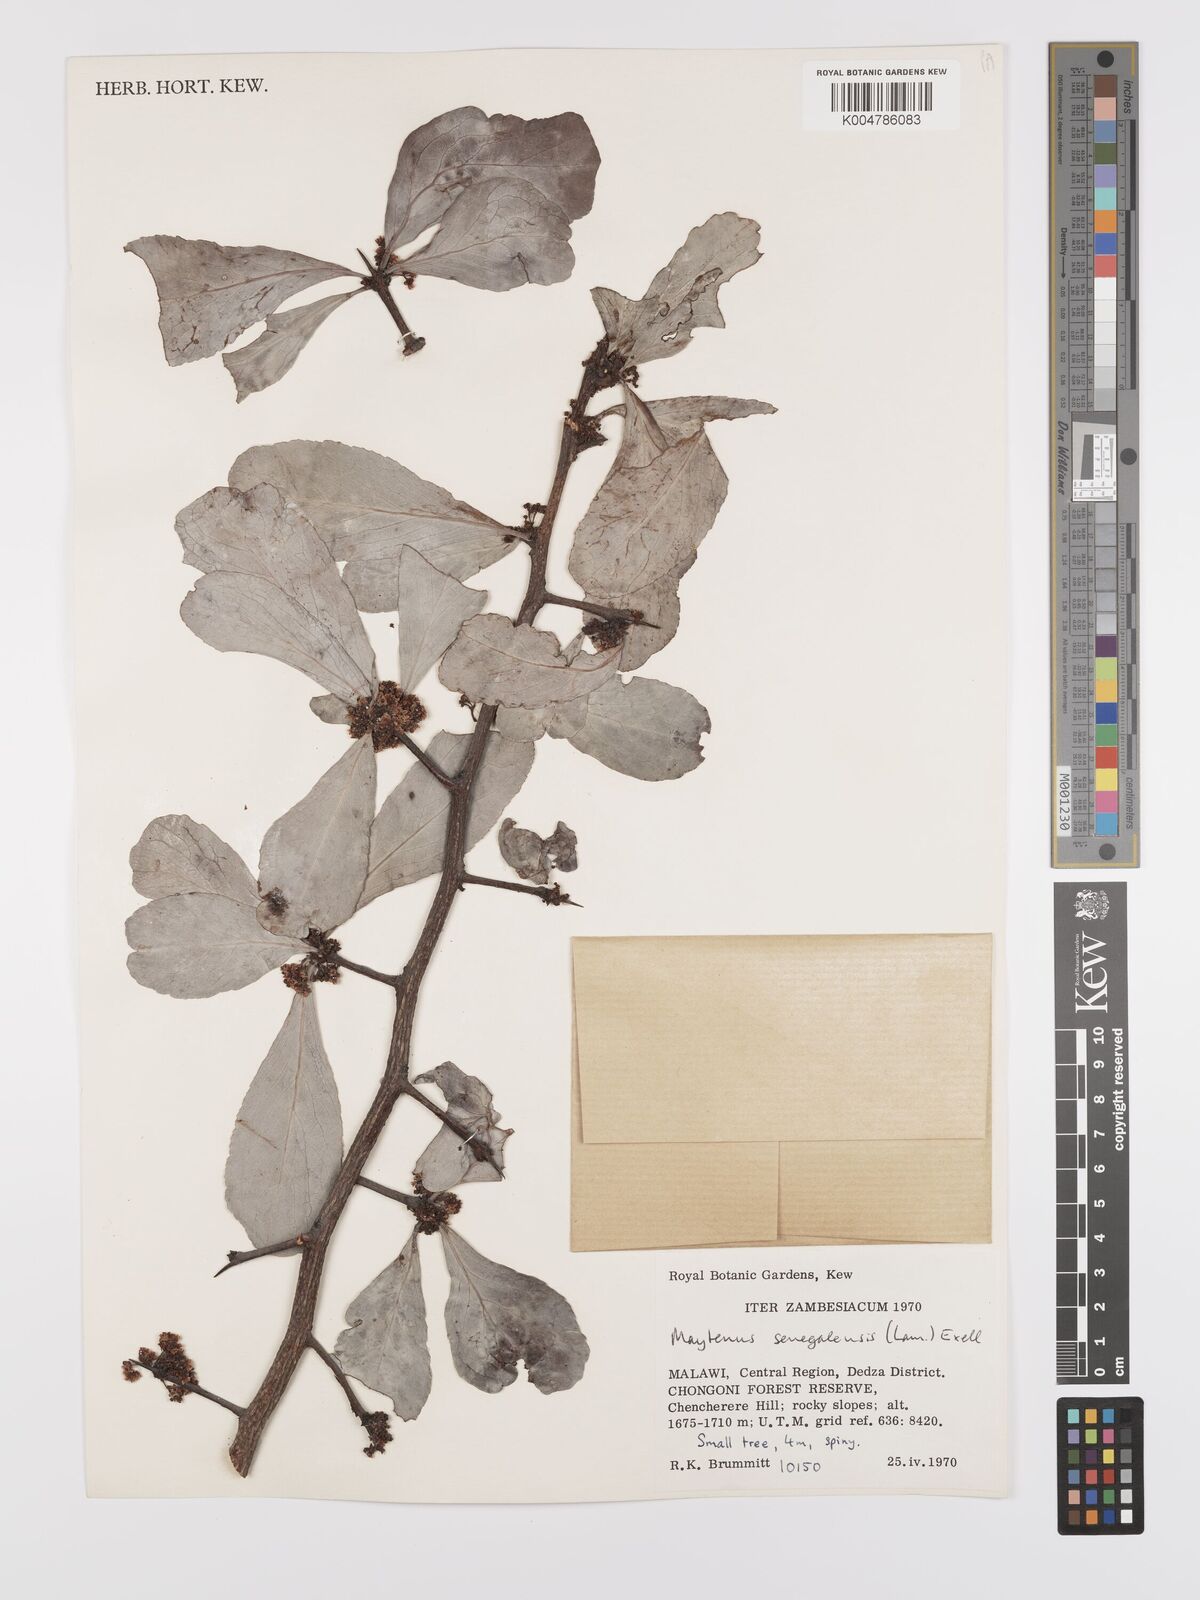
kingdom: Plantae
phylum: Tracheophyta
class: Magnoliopsida
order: Celastrales
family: Celastraceae
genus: Gymnosporia
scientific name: Gymnosporia senegalensis
